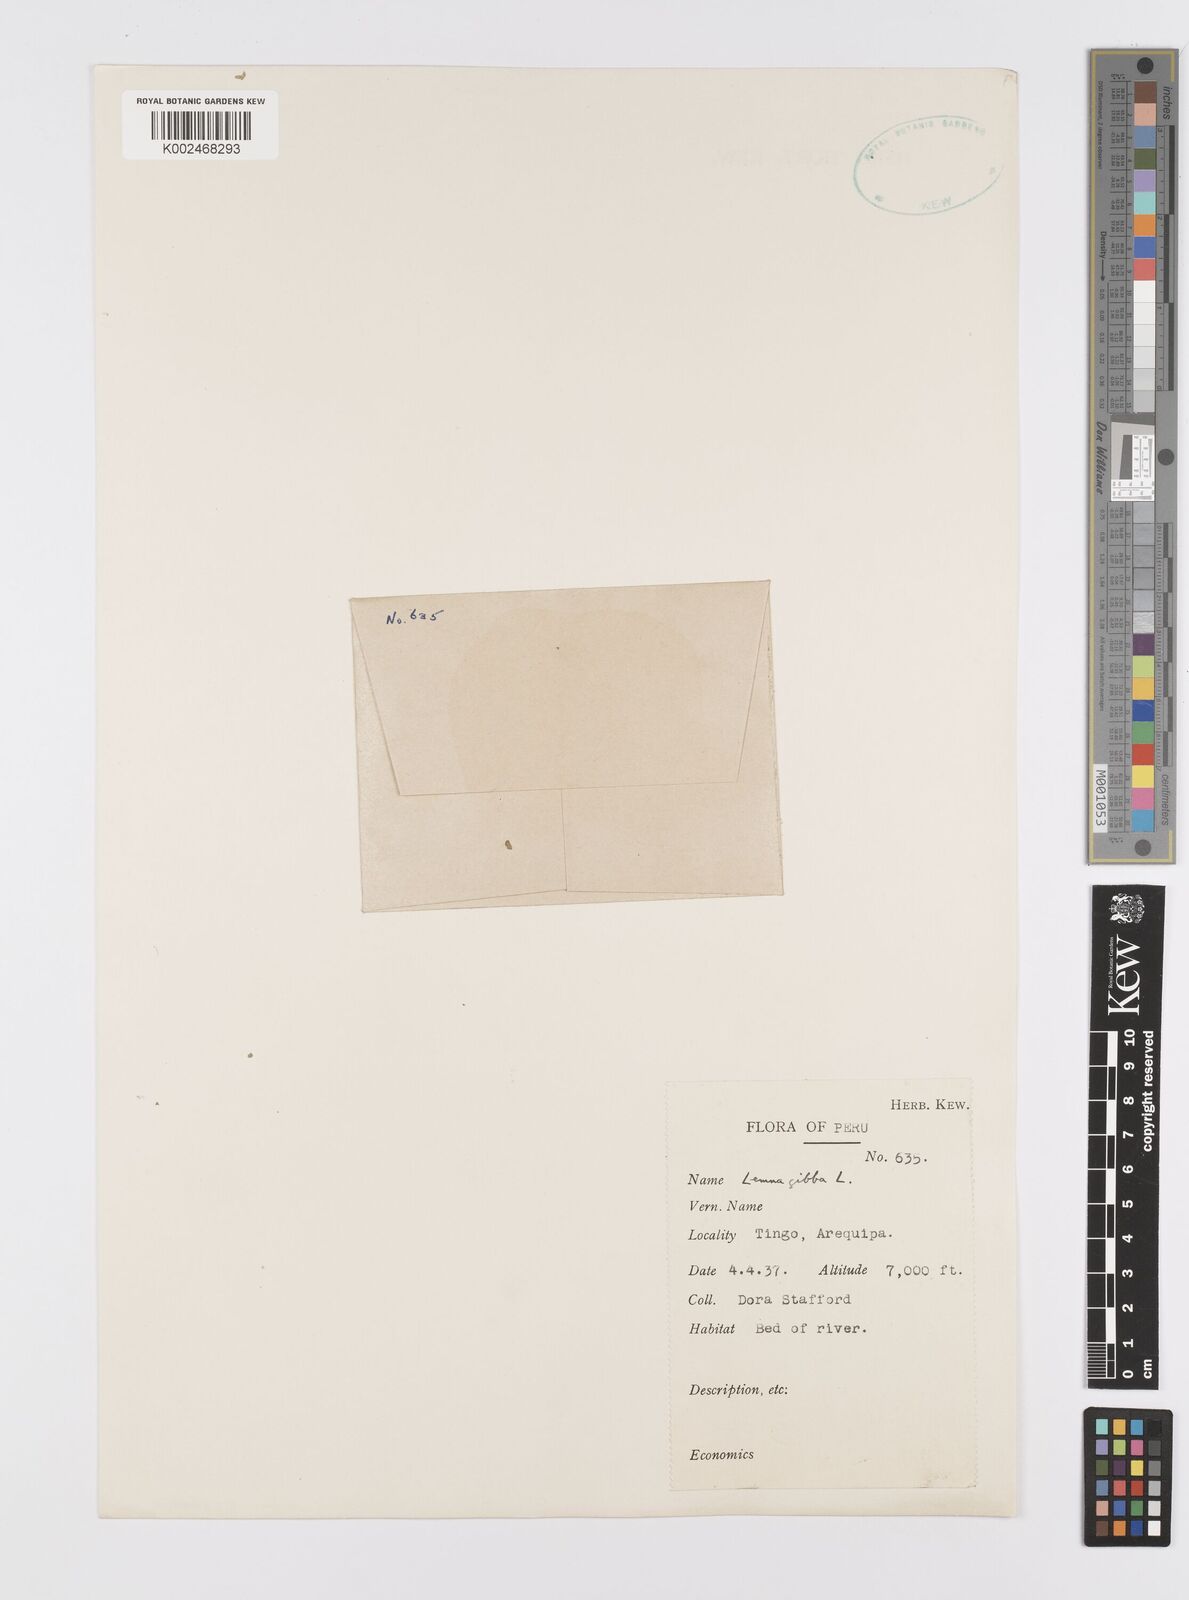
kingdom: Plantae
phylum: Tracheophyta
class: Liliopsida
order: Alismatales
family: Araceae
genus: Lemna
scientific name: Lemna gibba
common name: Fat duckweed
